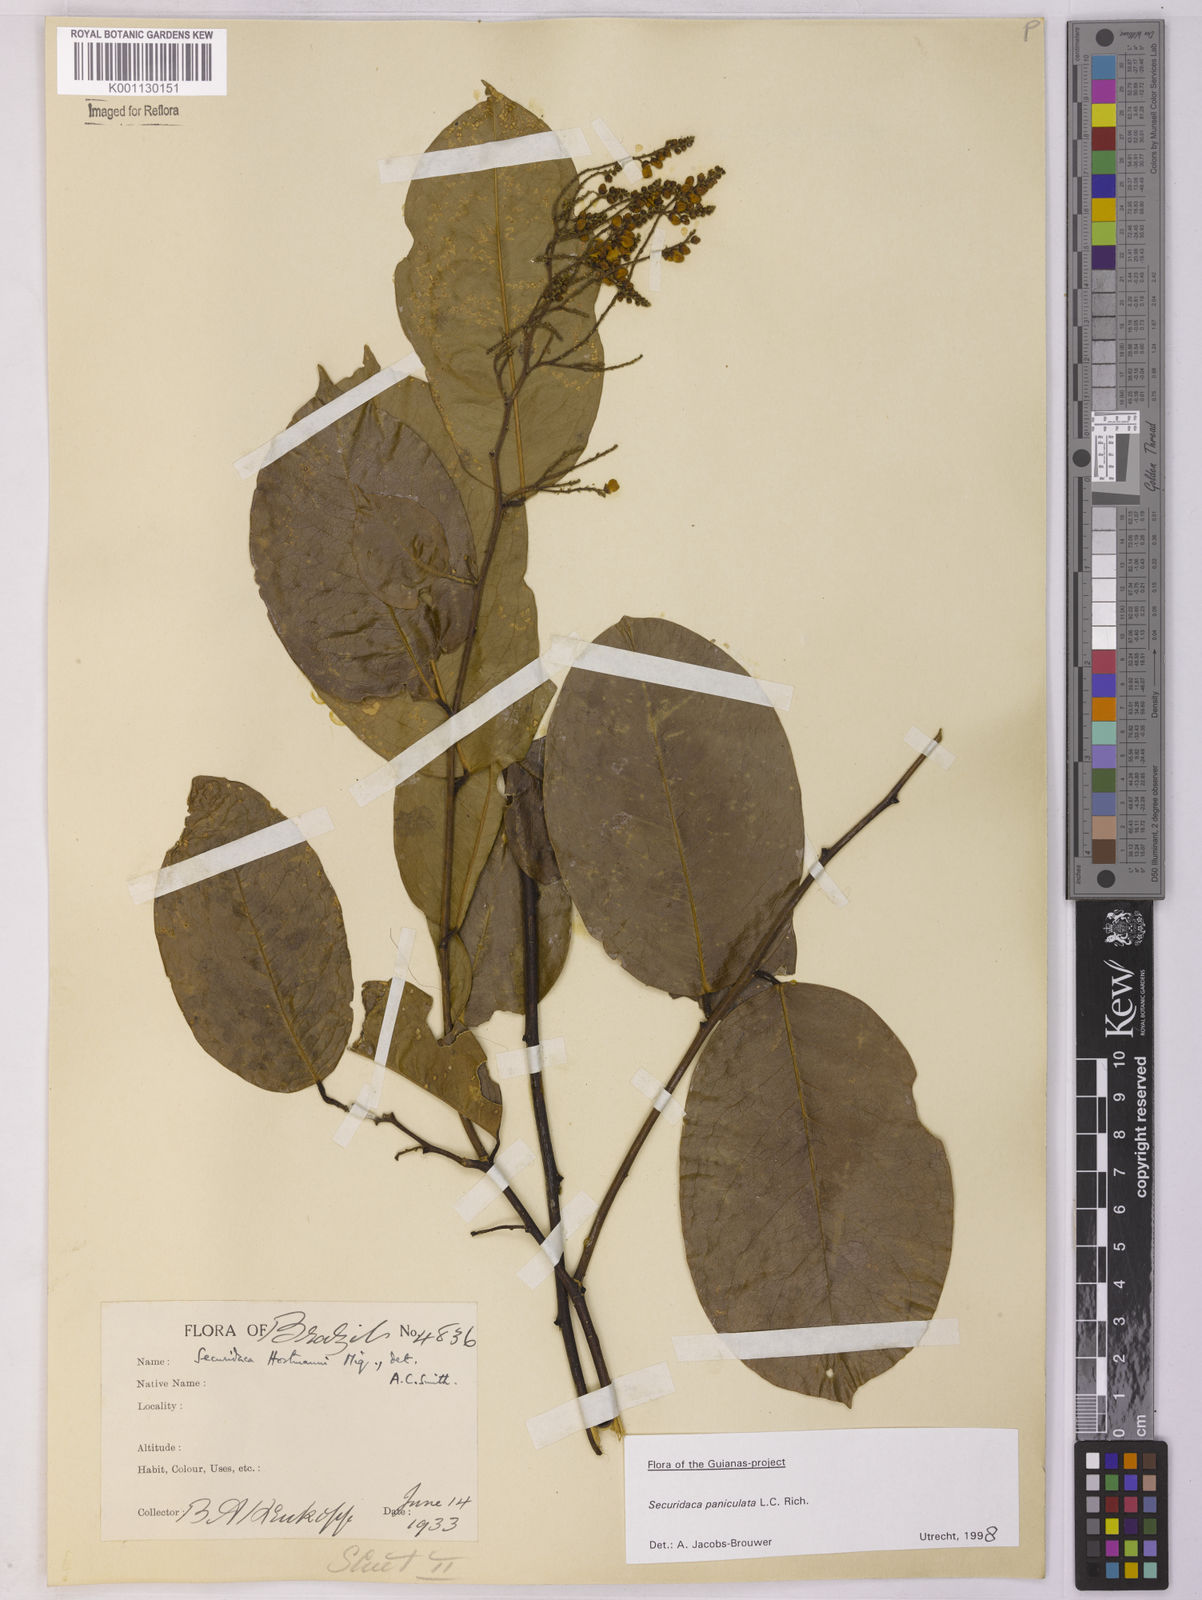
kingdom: Plantae
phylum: Tracheophyta
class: Magnoliopsida
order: Fabales
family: Polygalaceae
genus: Securidaca
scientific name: Securidaca paniculata
